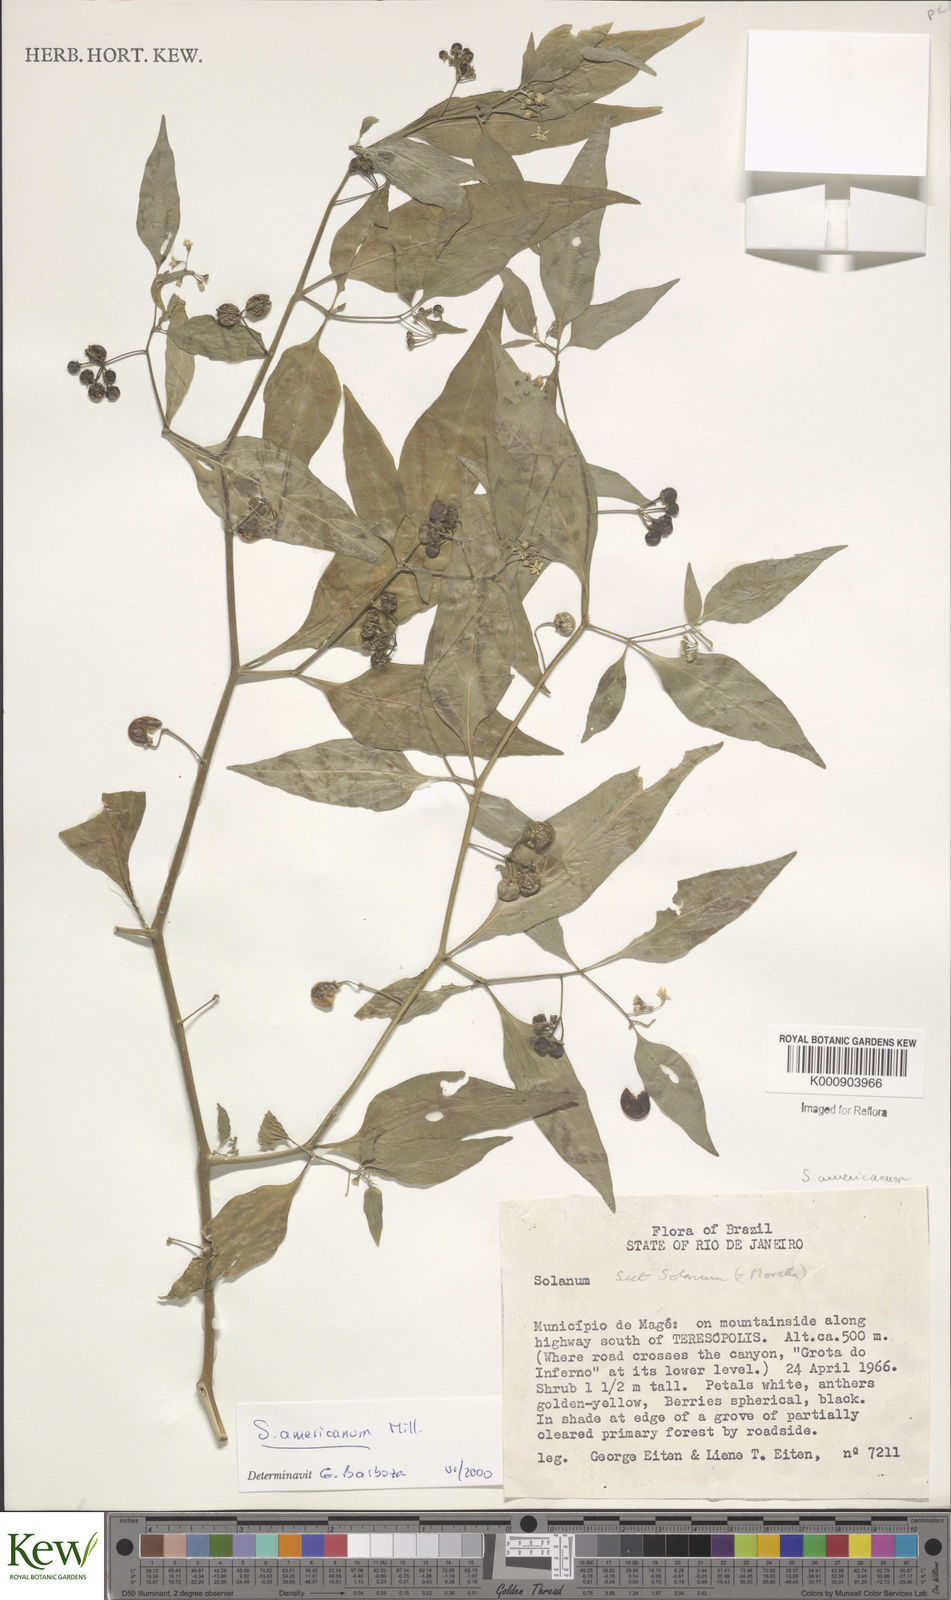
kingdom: Plantae
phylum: Tracheophyta
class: Magnoliopsida
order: Solanales
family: Solanaceae
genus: Solanum
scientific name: Solanum americanum
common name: American black nightshade
